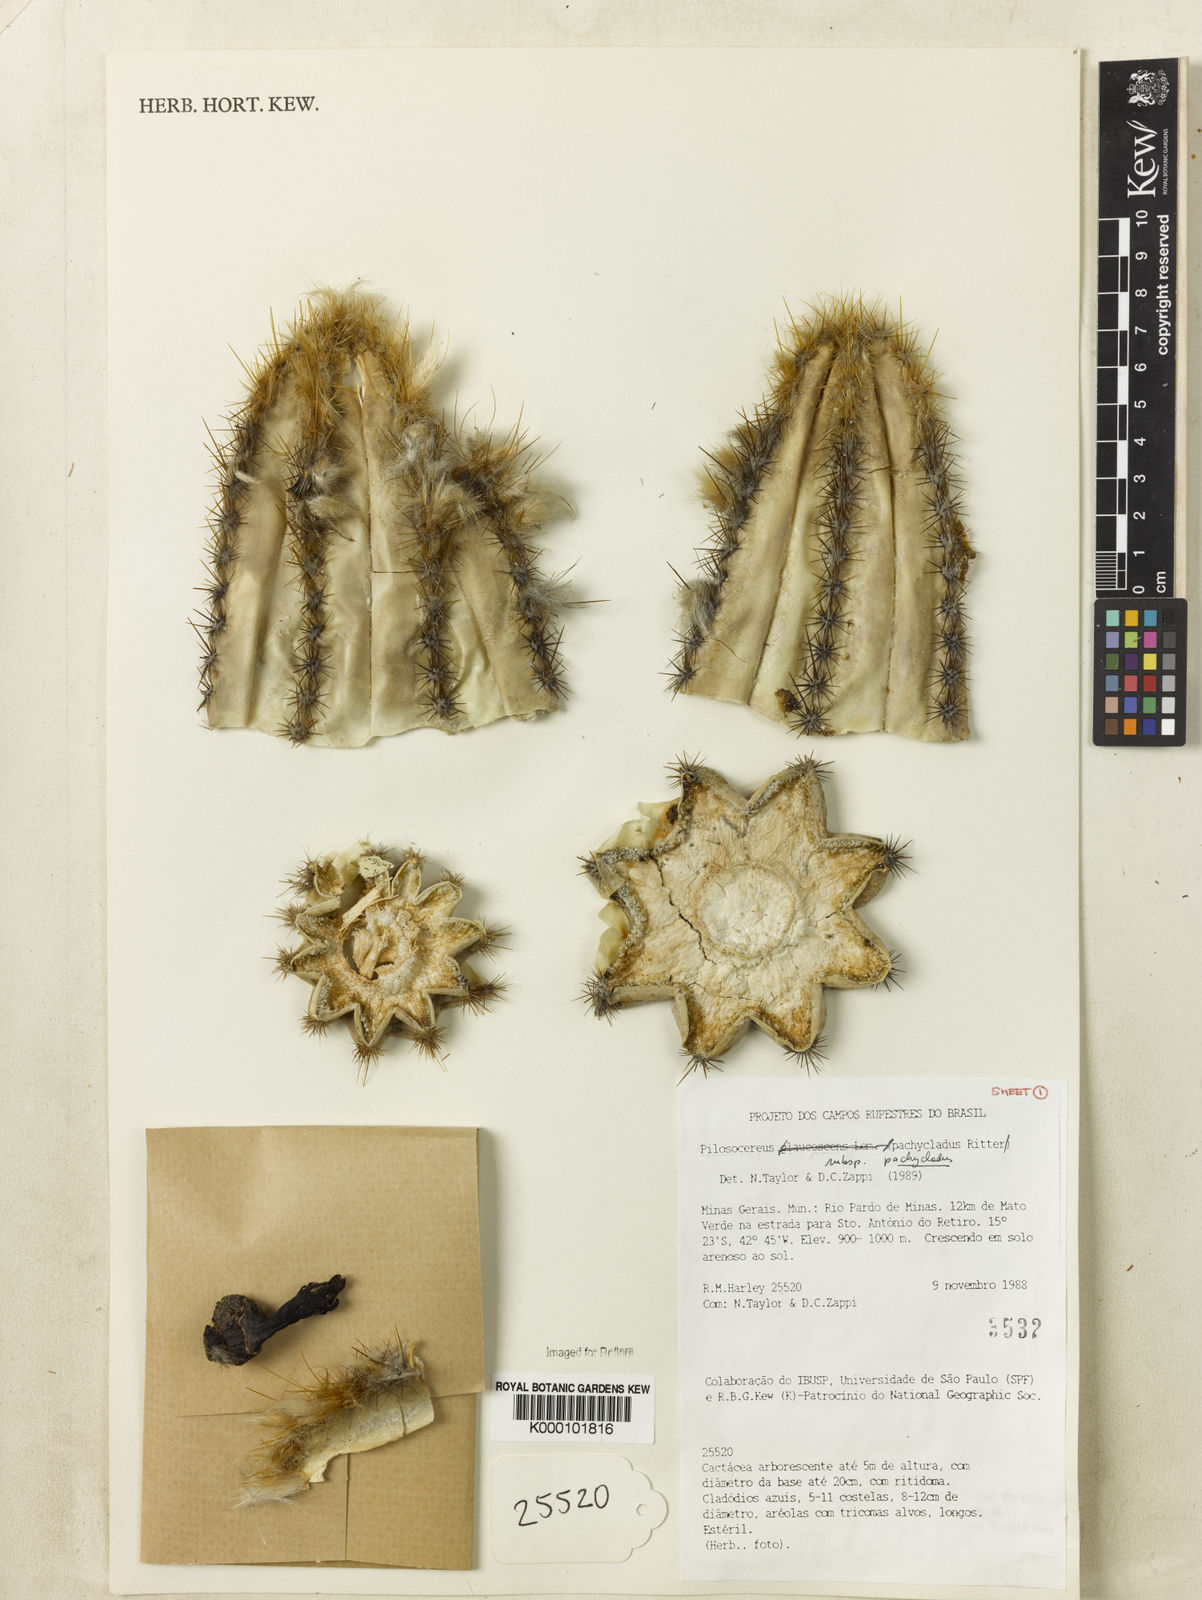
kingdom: Plantae
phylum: Tracheophyta
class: Magnoliopsida
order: Caryophyllales
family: Cactaceae
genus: Pilosocereus
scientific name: Pilosocereus pachycladus
